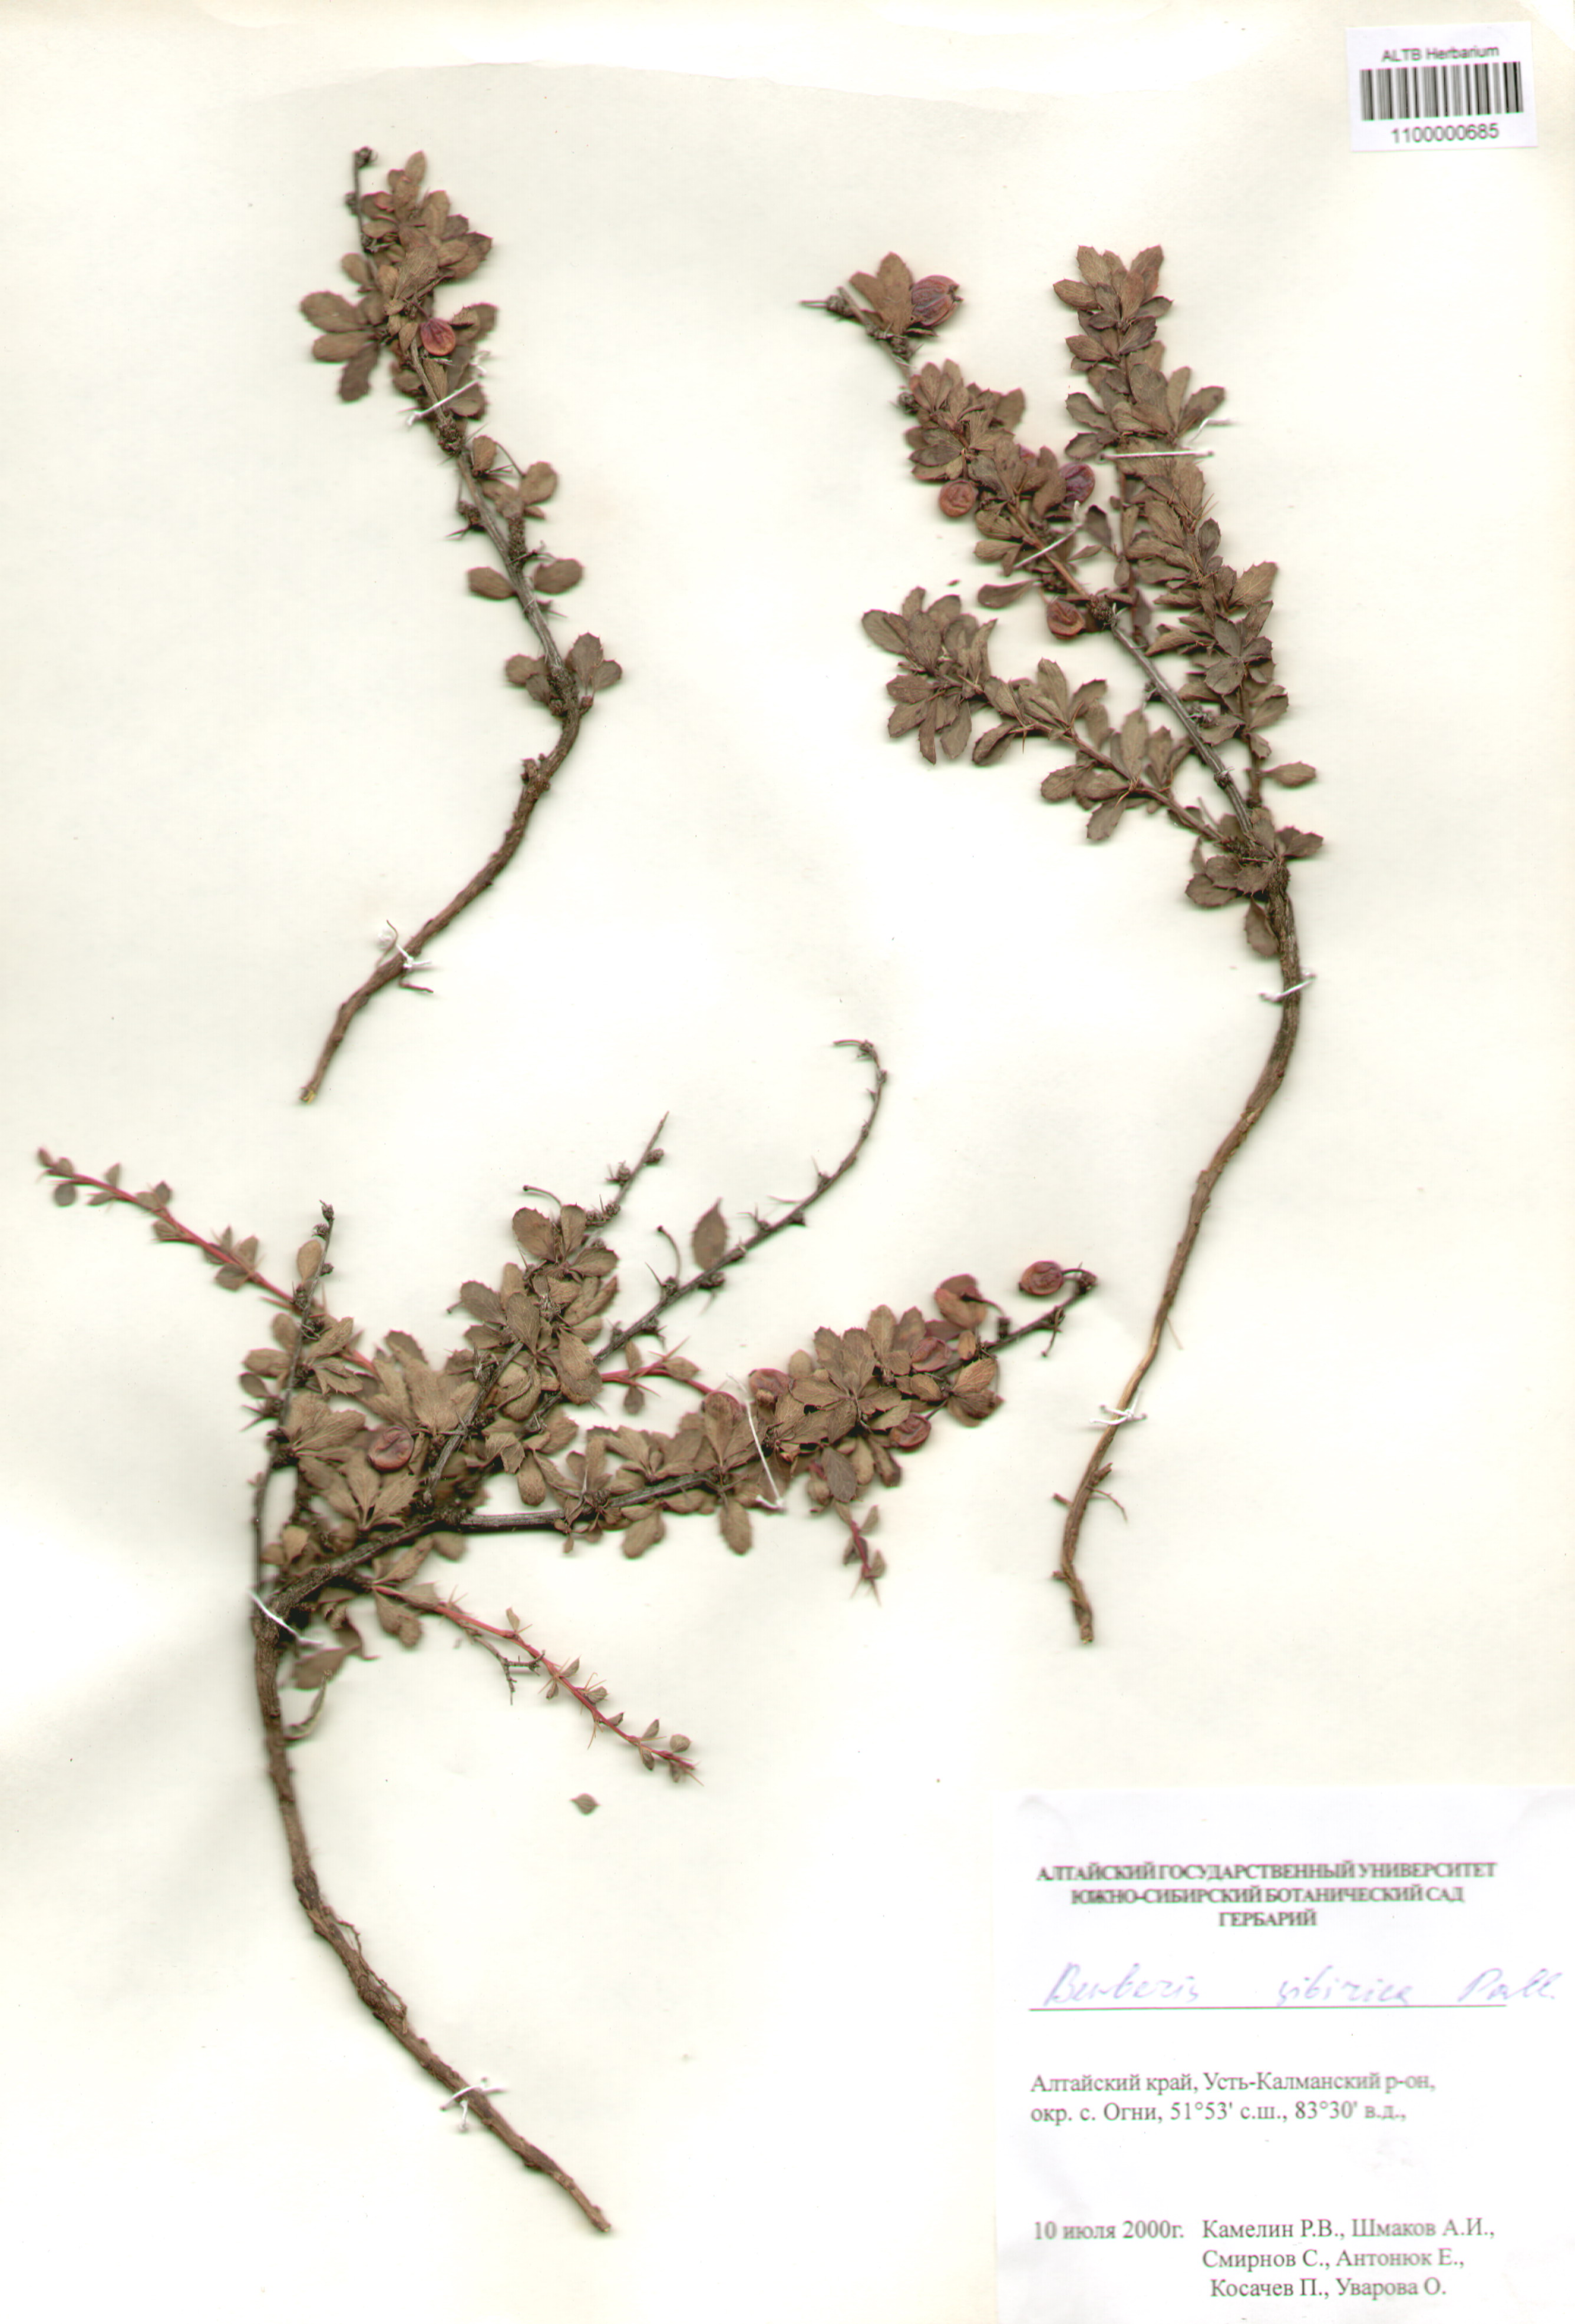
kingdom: Plantae
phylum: Tracheophyta
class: Magnoliopsida
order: Ranunculales
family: Berberidaceae
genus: Berberis
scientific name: Berberis sibirica
